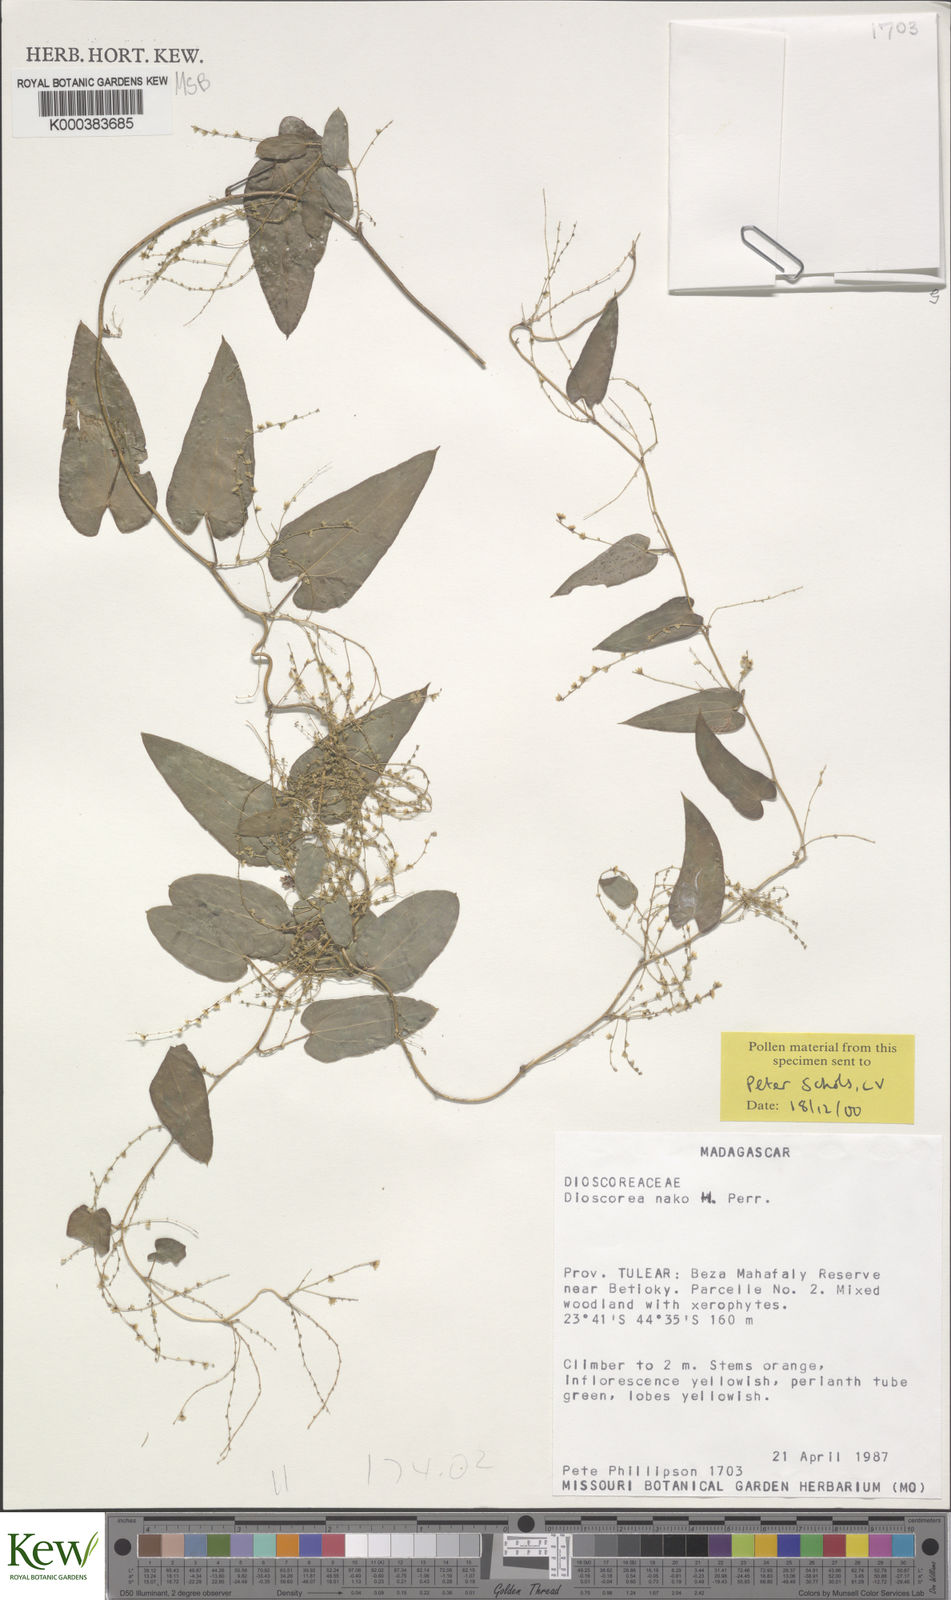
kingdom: Plantae
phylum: Tracheophyta
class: Liliopsida
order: Dioscoreales
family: Dioscoreaceae
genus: Dioscorea
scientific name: Dioscorea
